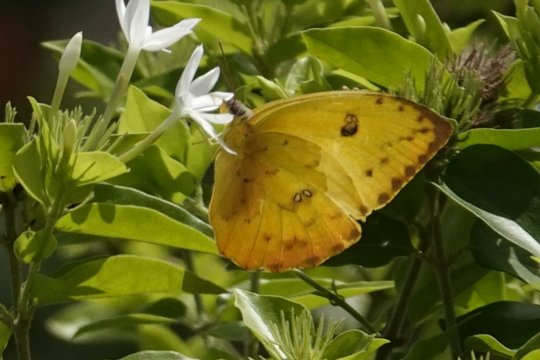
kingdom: Animalia
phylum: Arthropoda
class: Insecta
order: Lepidoptera
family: Pieridae
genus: Phoebis
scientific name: Phoebis philea
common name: Orange-barred Sulphur
